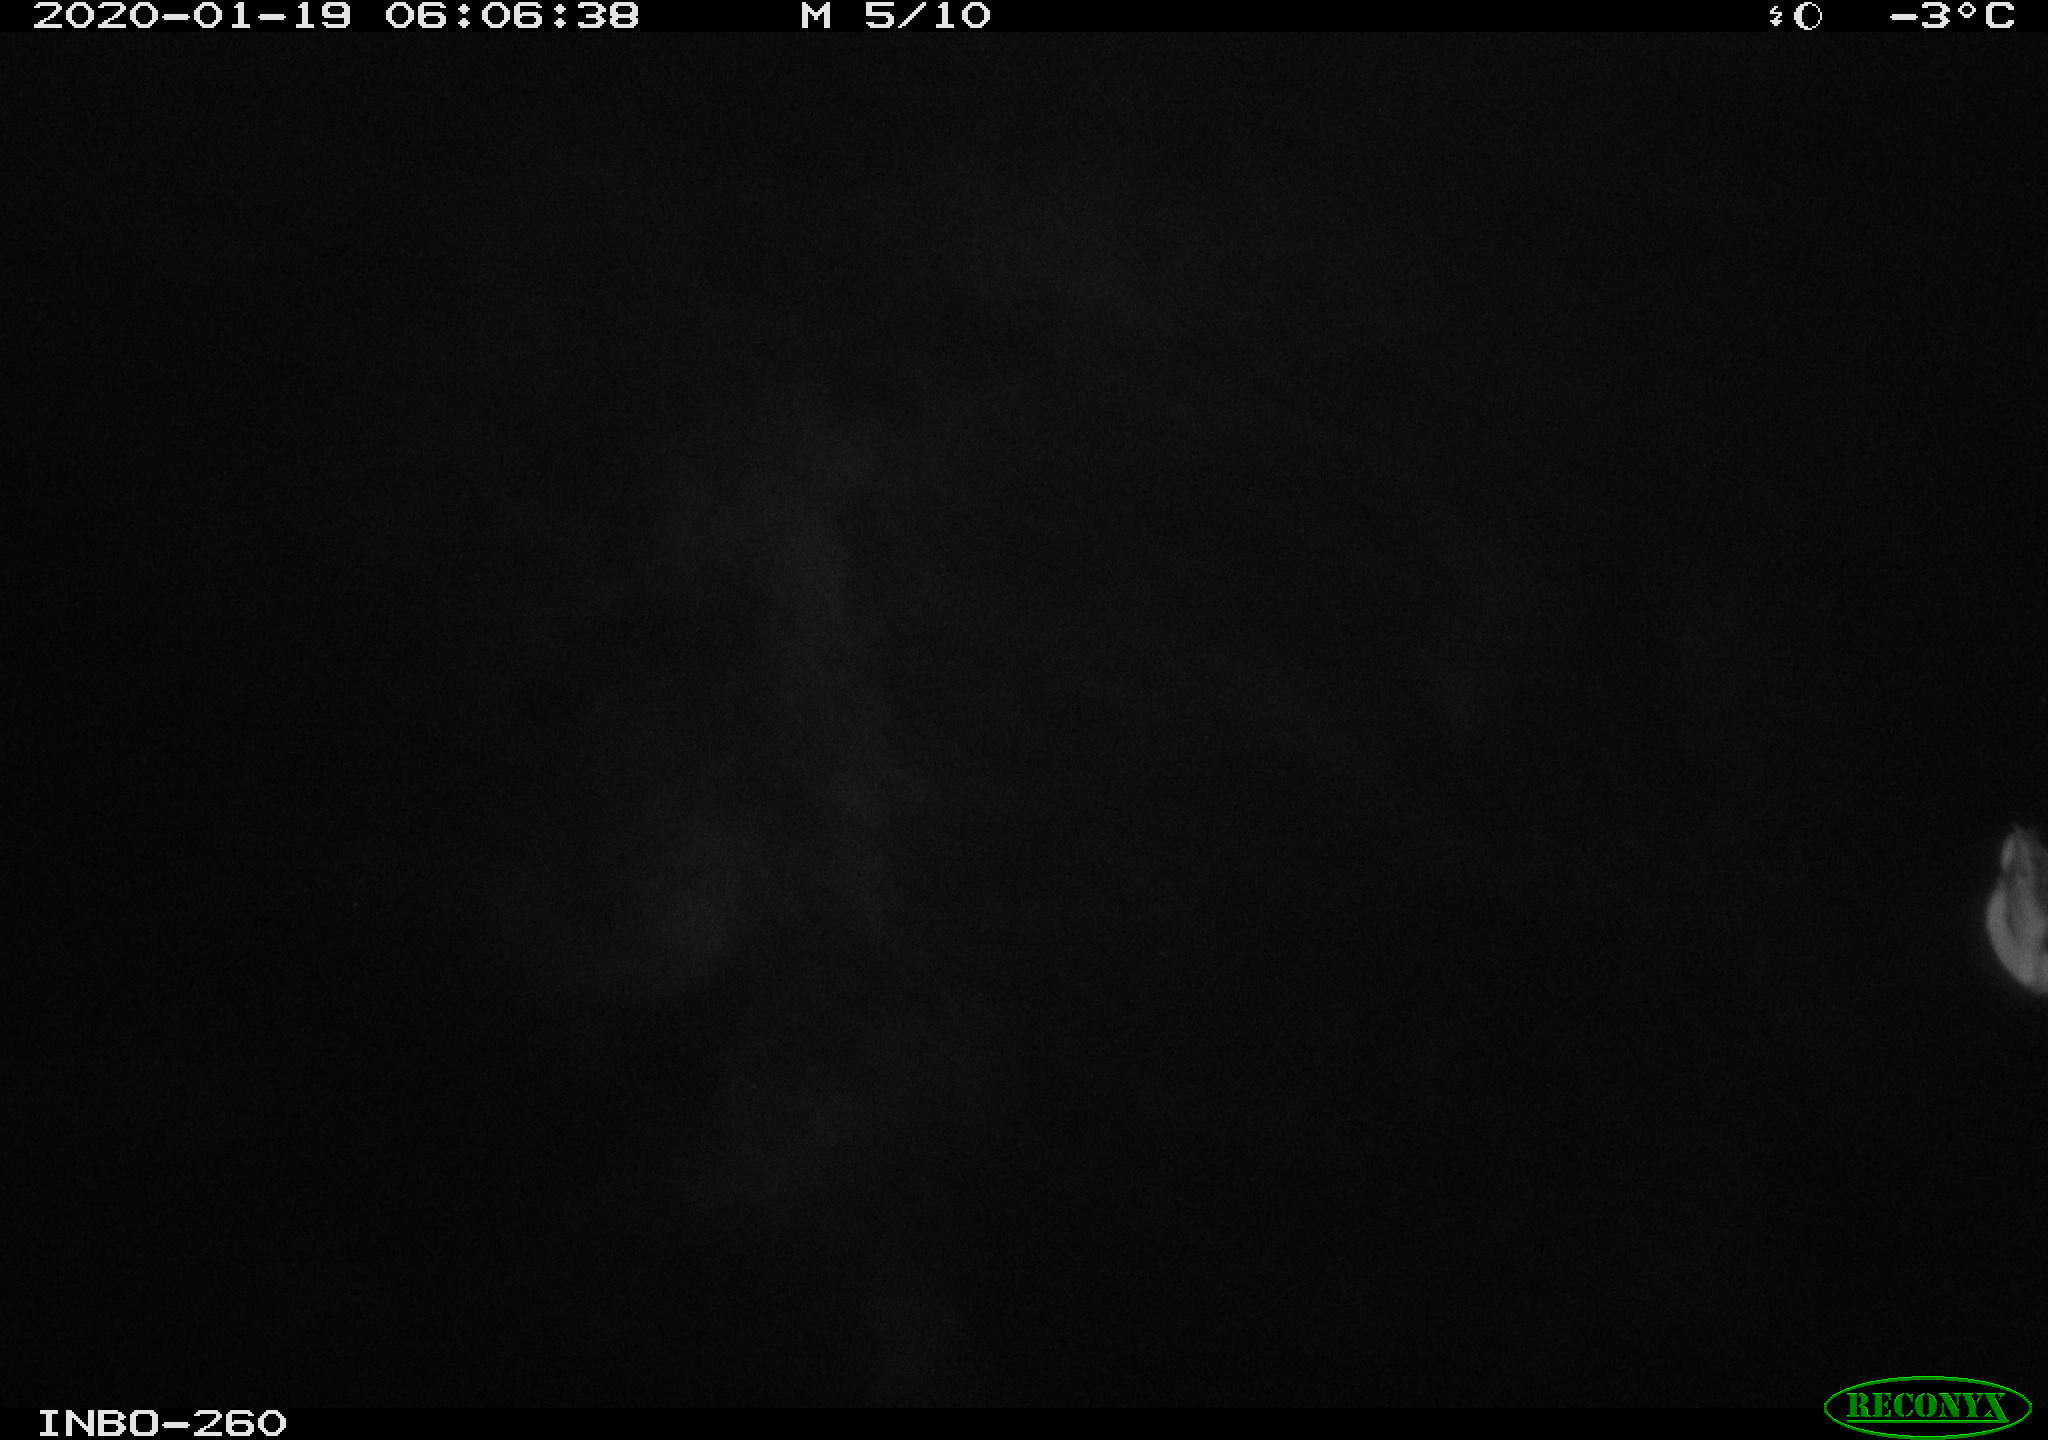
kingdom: Animalia
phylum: Chordata
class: Aves
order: Anseriformes
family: Anatidae
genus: Anas
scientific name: Anas platyrhynchos
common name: Mallard
